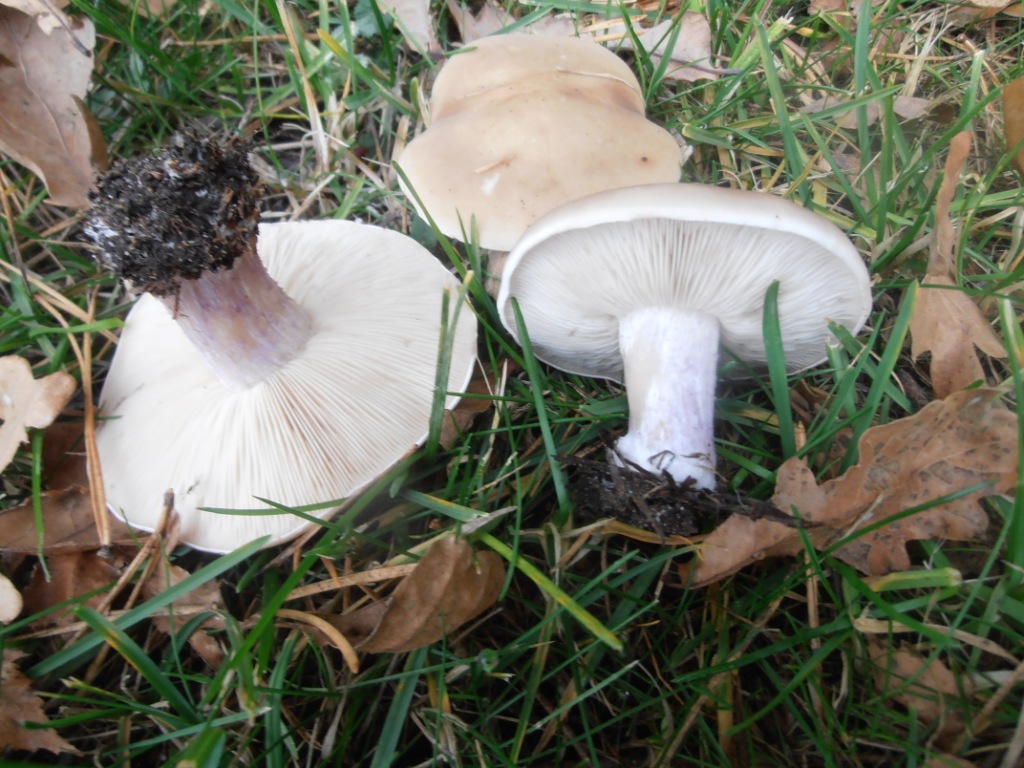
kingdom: Fungi
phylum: Basidiomycota
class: Agaricomycetes
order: Agaricales
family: Tricholomataceae
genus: Lepista
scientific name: Lepista personata
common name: bleg hekseringshat
